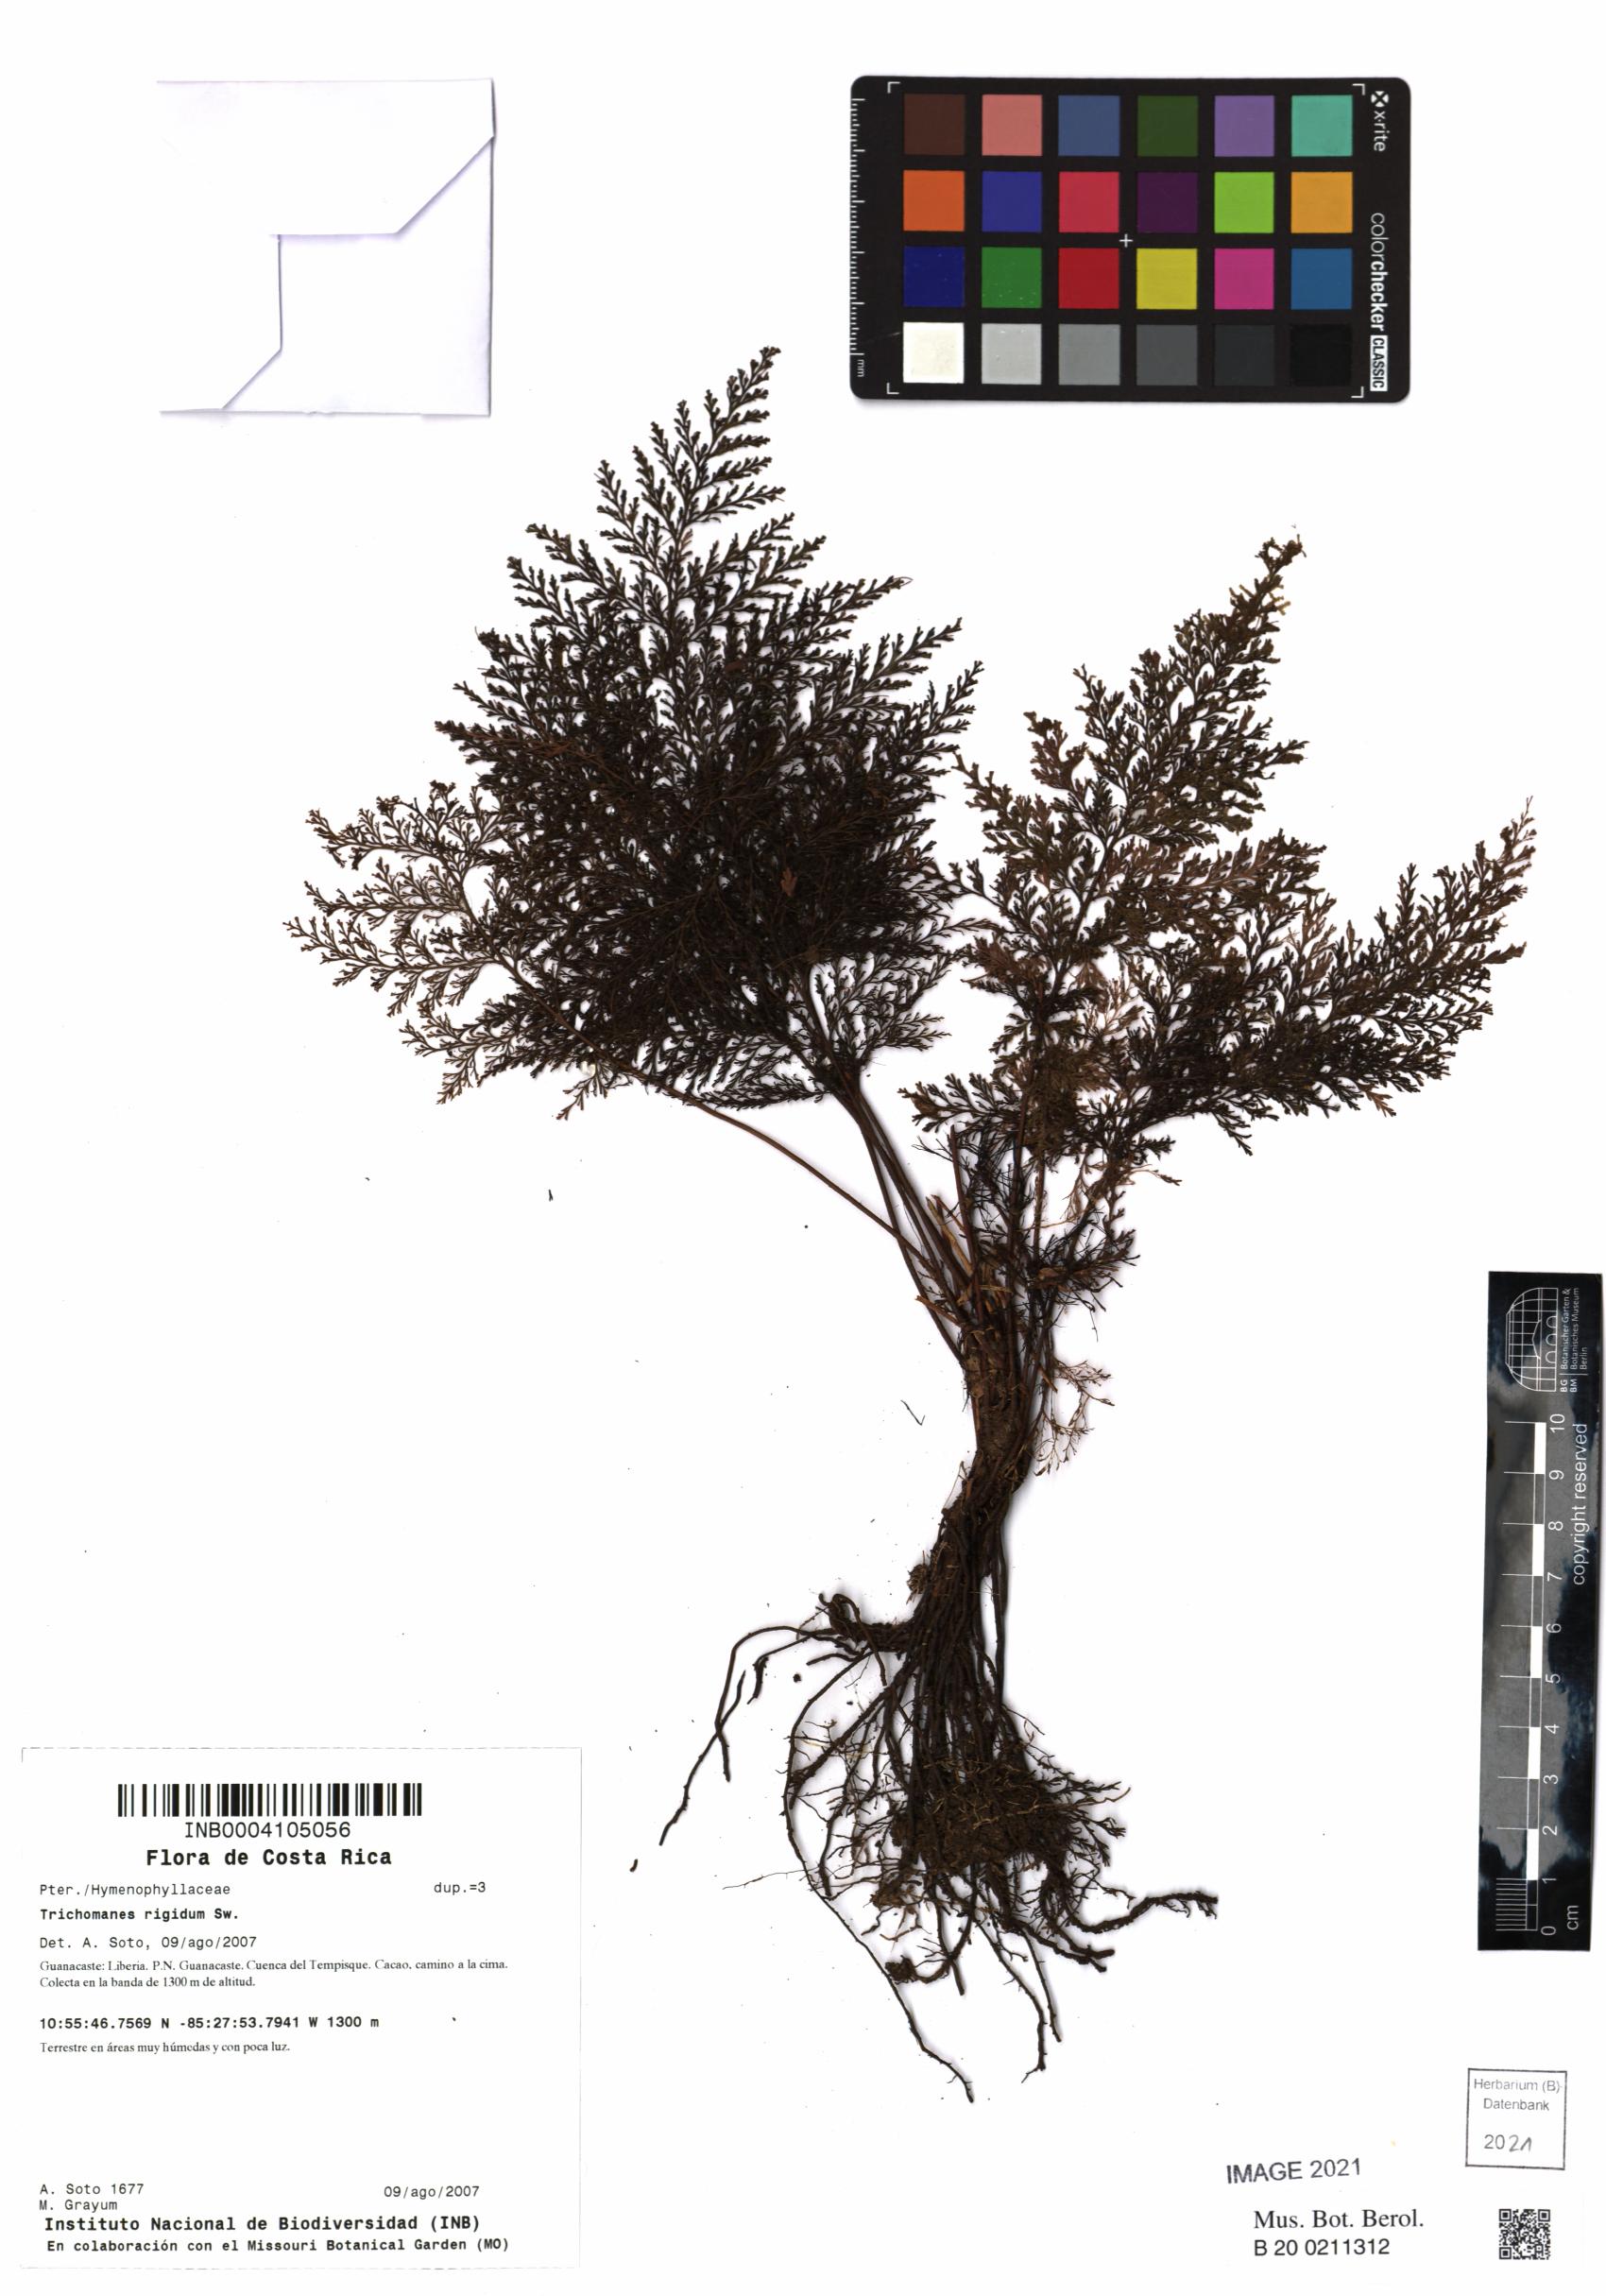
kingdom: Plantae
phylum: Tracheophyta
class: Polypodiopsida
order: Hymenophyllales
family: Hymenophyllaceae
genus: Abrodictyum
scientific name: Abrodictyum rigidum
